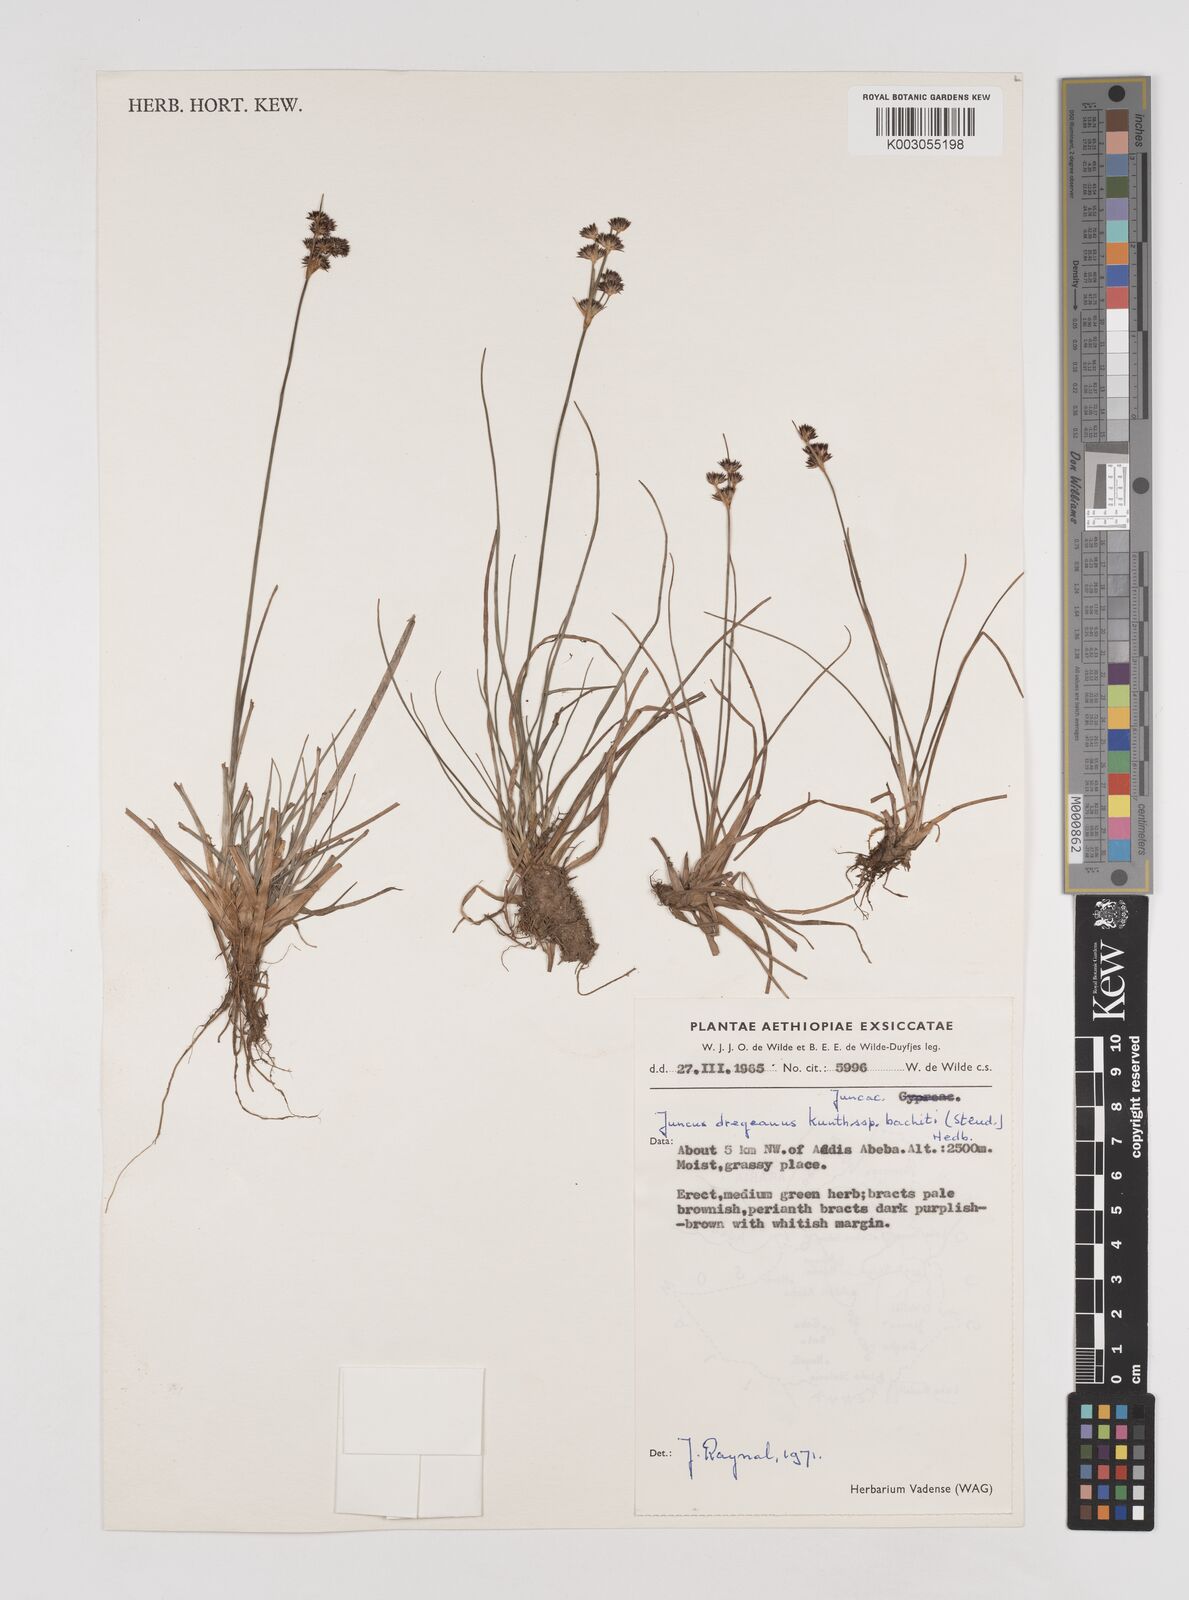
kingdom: Plantae
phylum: Tracheophyta
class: Liliopsida
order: Poales
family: Juncaceae
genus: Juncus
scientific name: Juncus dregeanus
